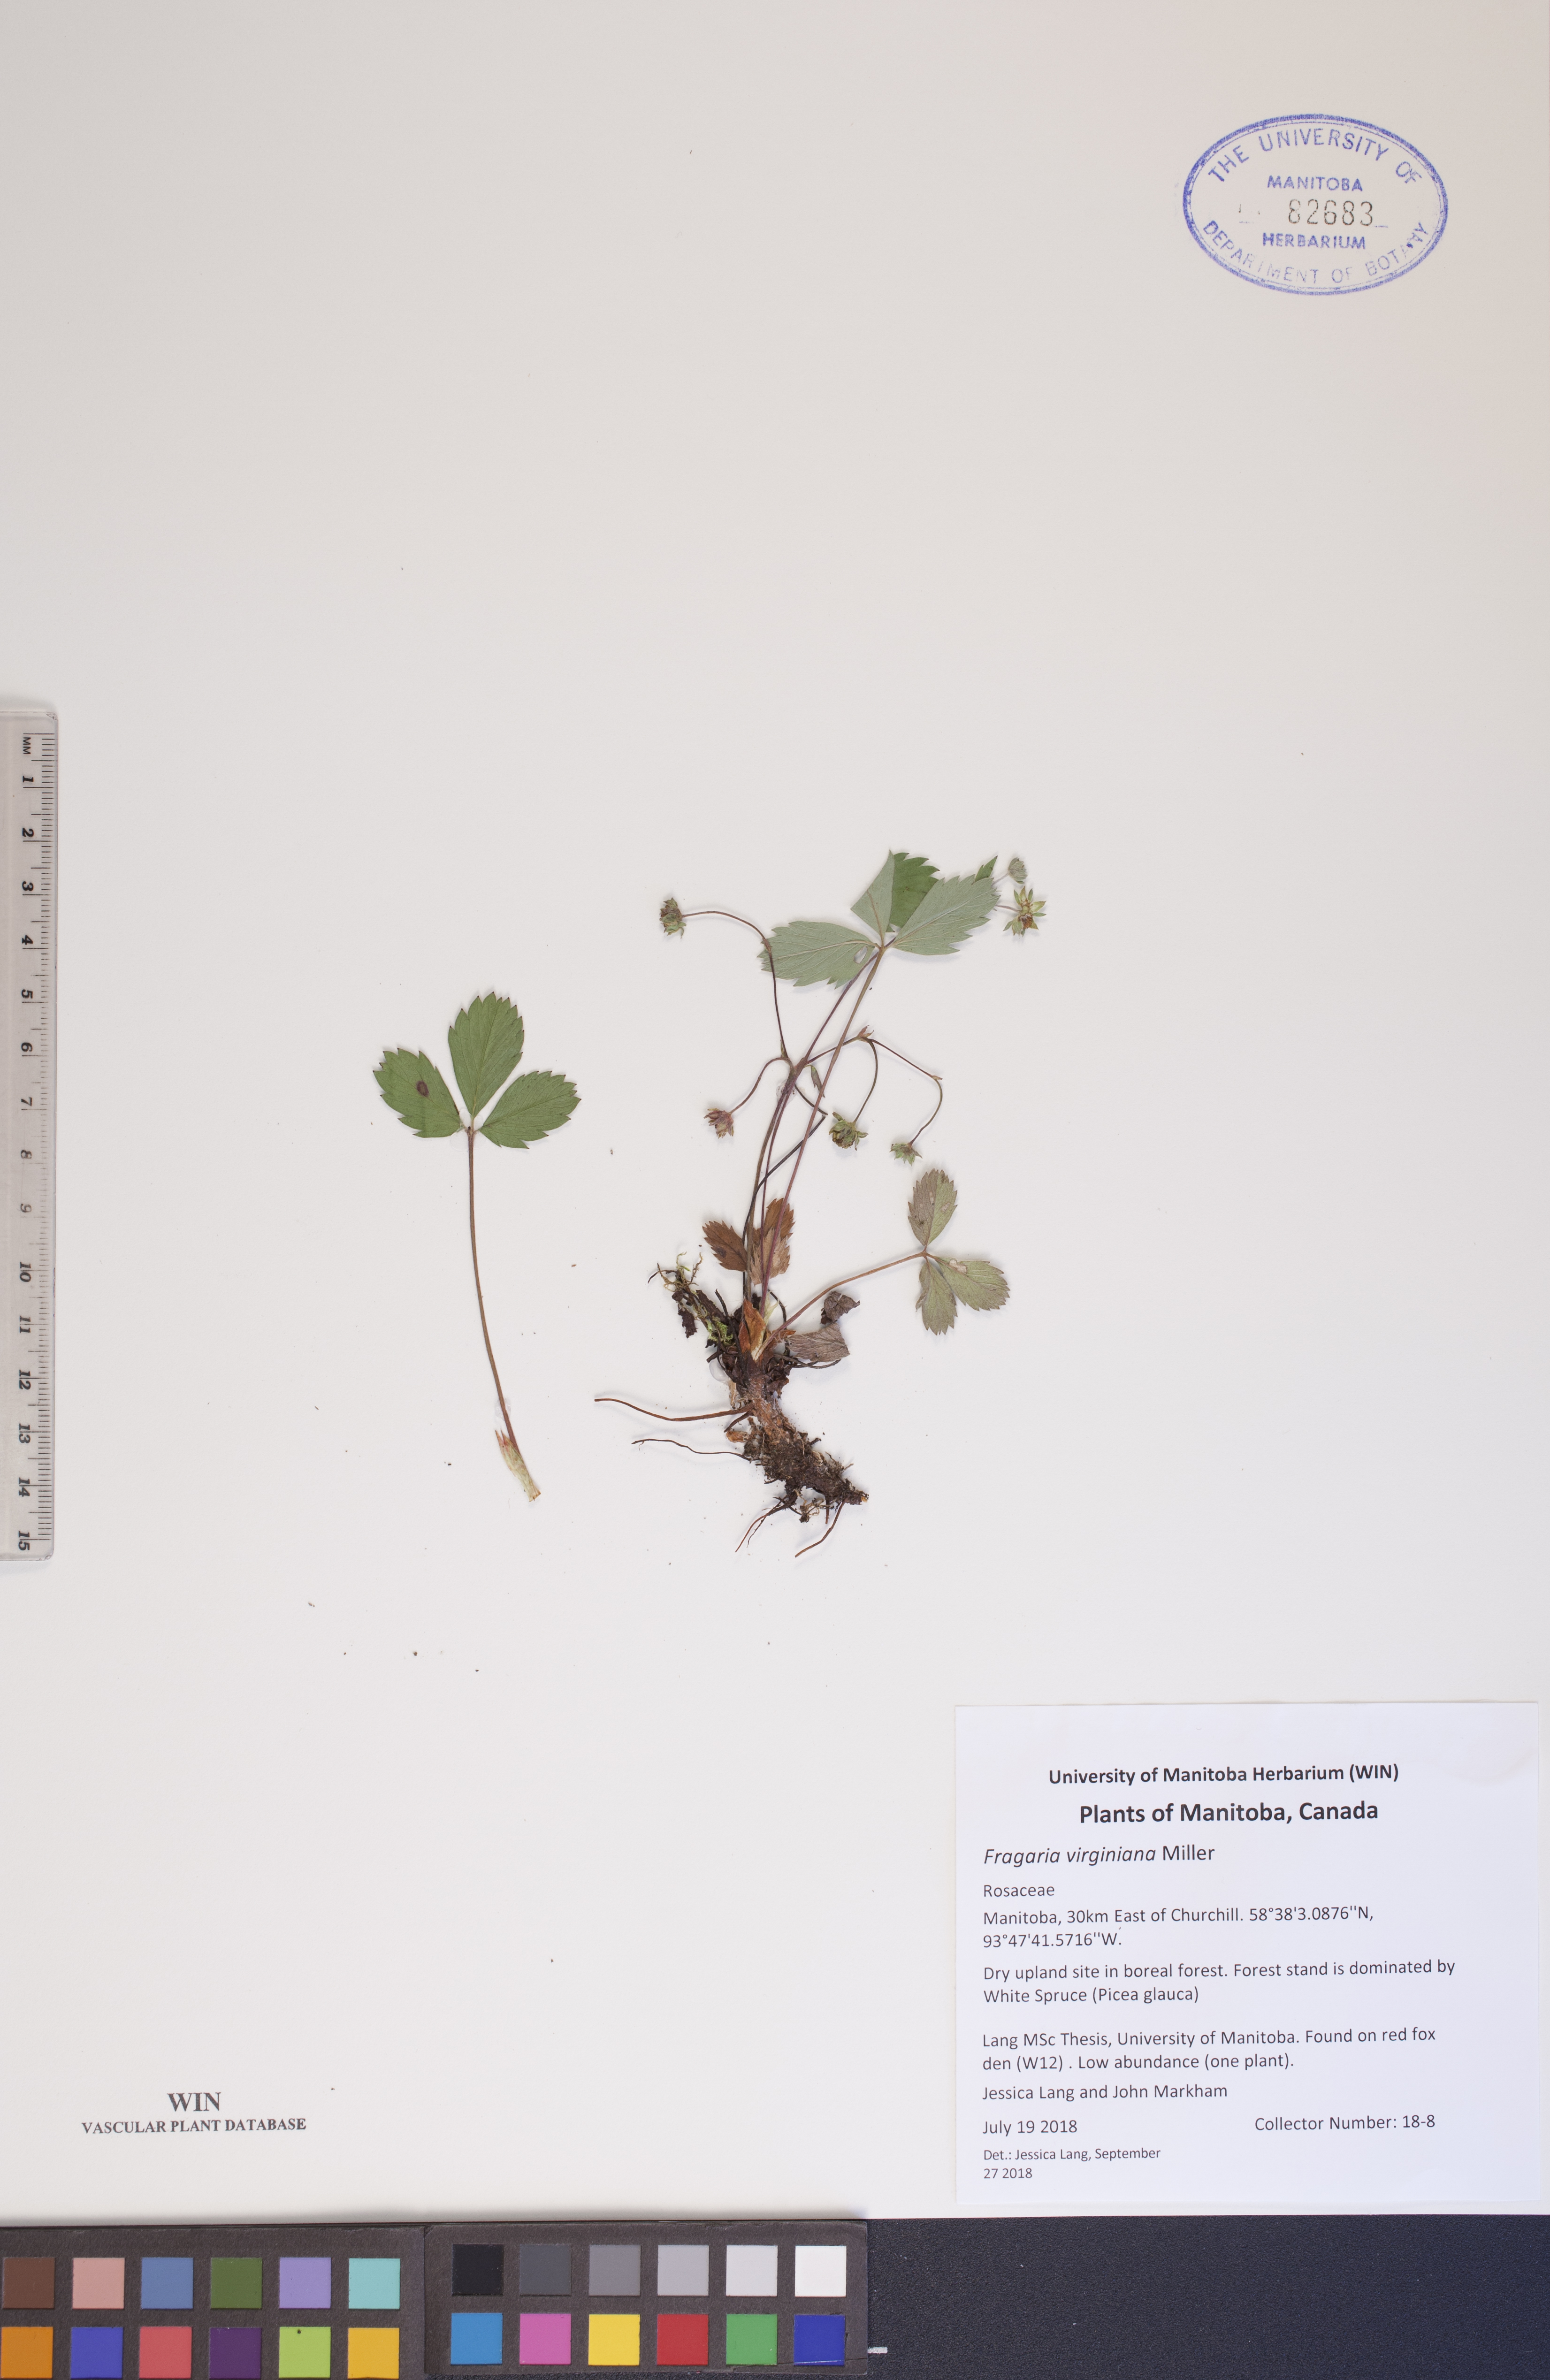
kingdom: Plantae
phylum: Tracheophyta
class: Magnoliopsida
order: Rosales
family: Rosaceae
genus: Fragaria
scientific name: Fragaria virginiana
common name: Thickleaved wild strawberry
